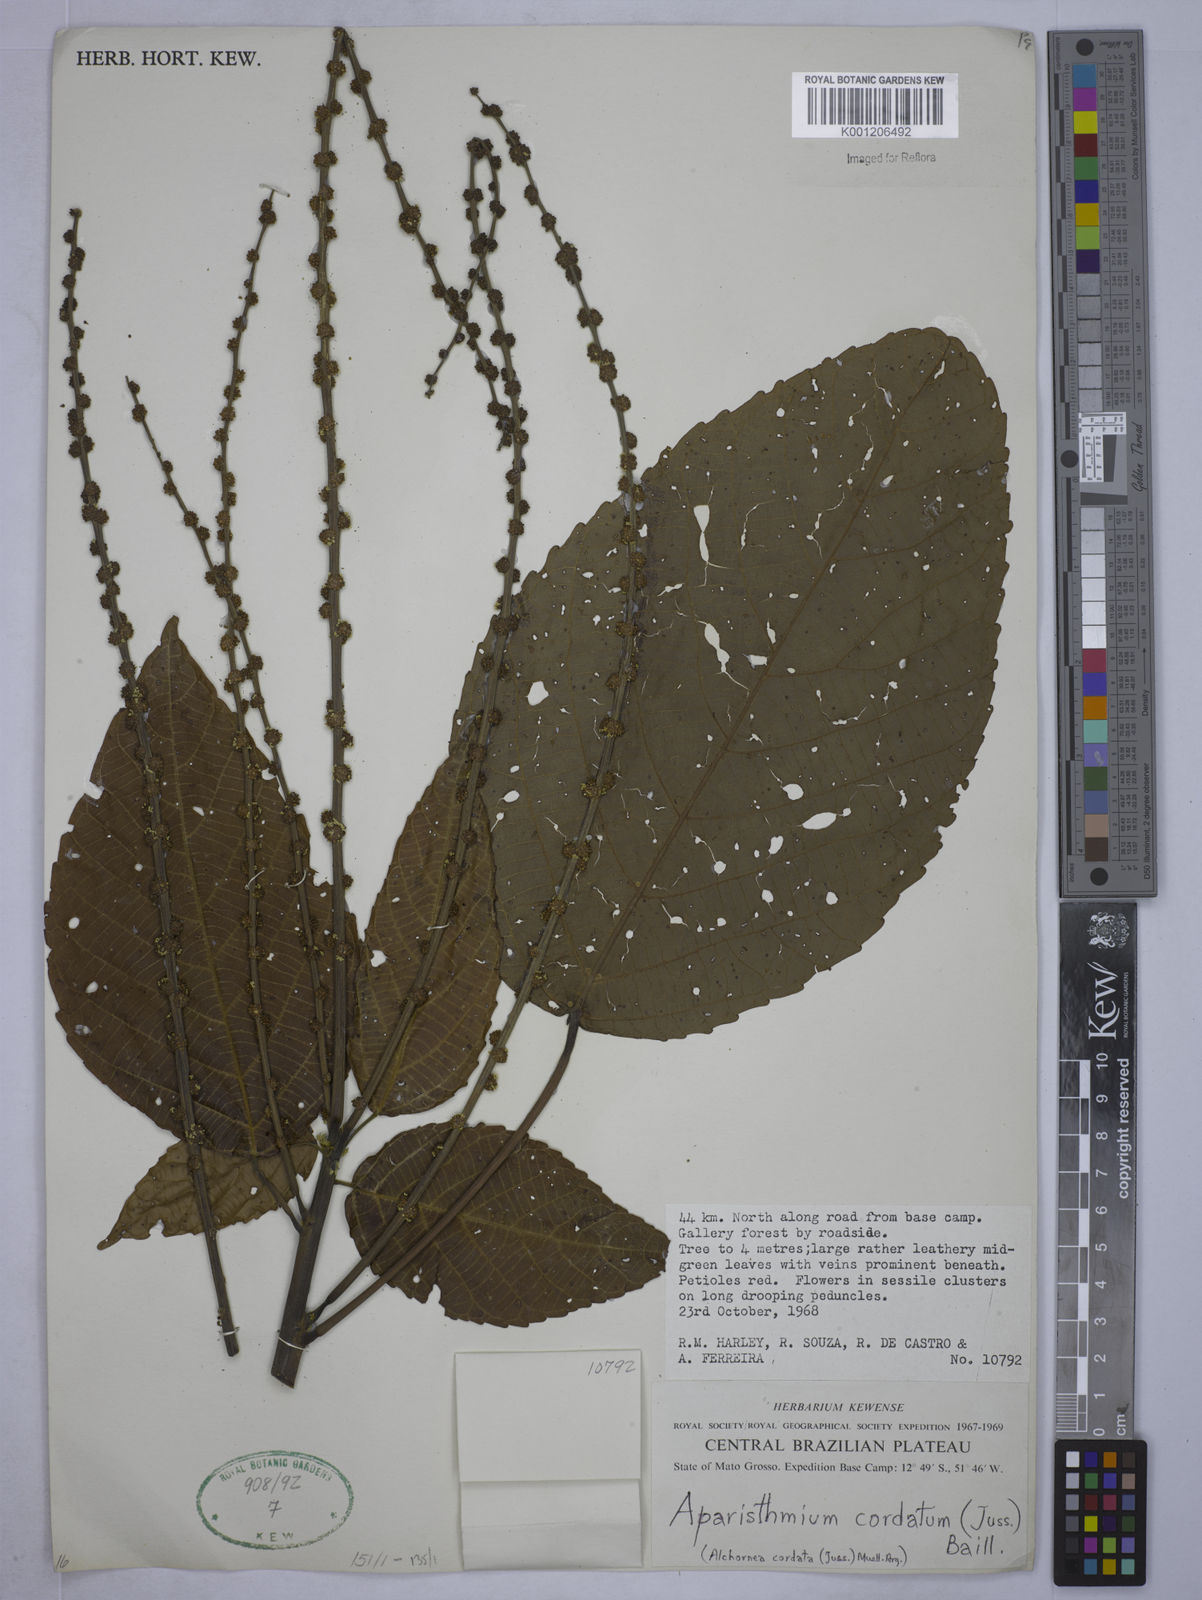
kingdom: Plantae
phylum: Tracheophyta
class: Magnoliopsida
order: Malpighiales
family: Euphorbiaceae
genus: Aparisthmium
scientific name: Aparisthmium cordatum
